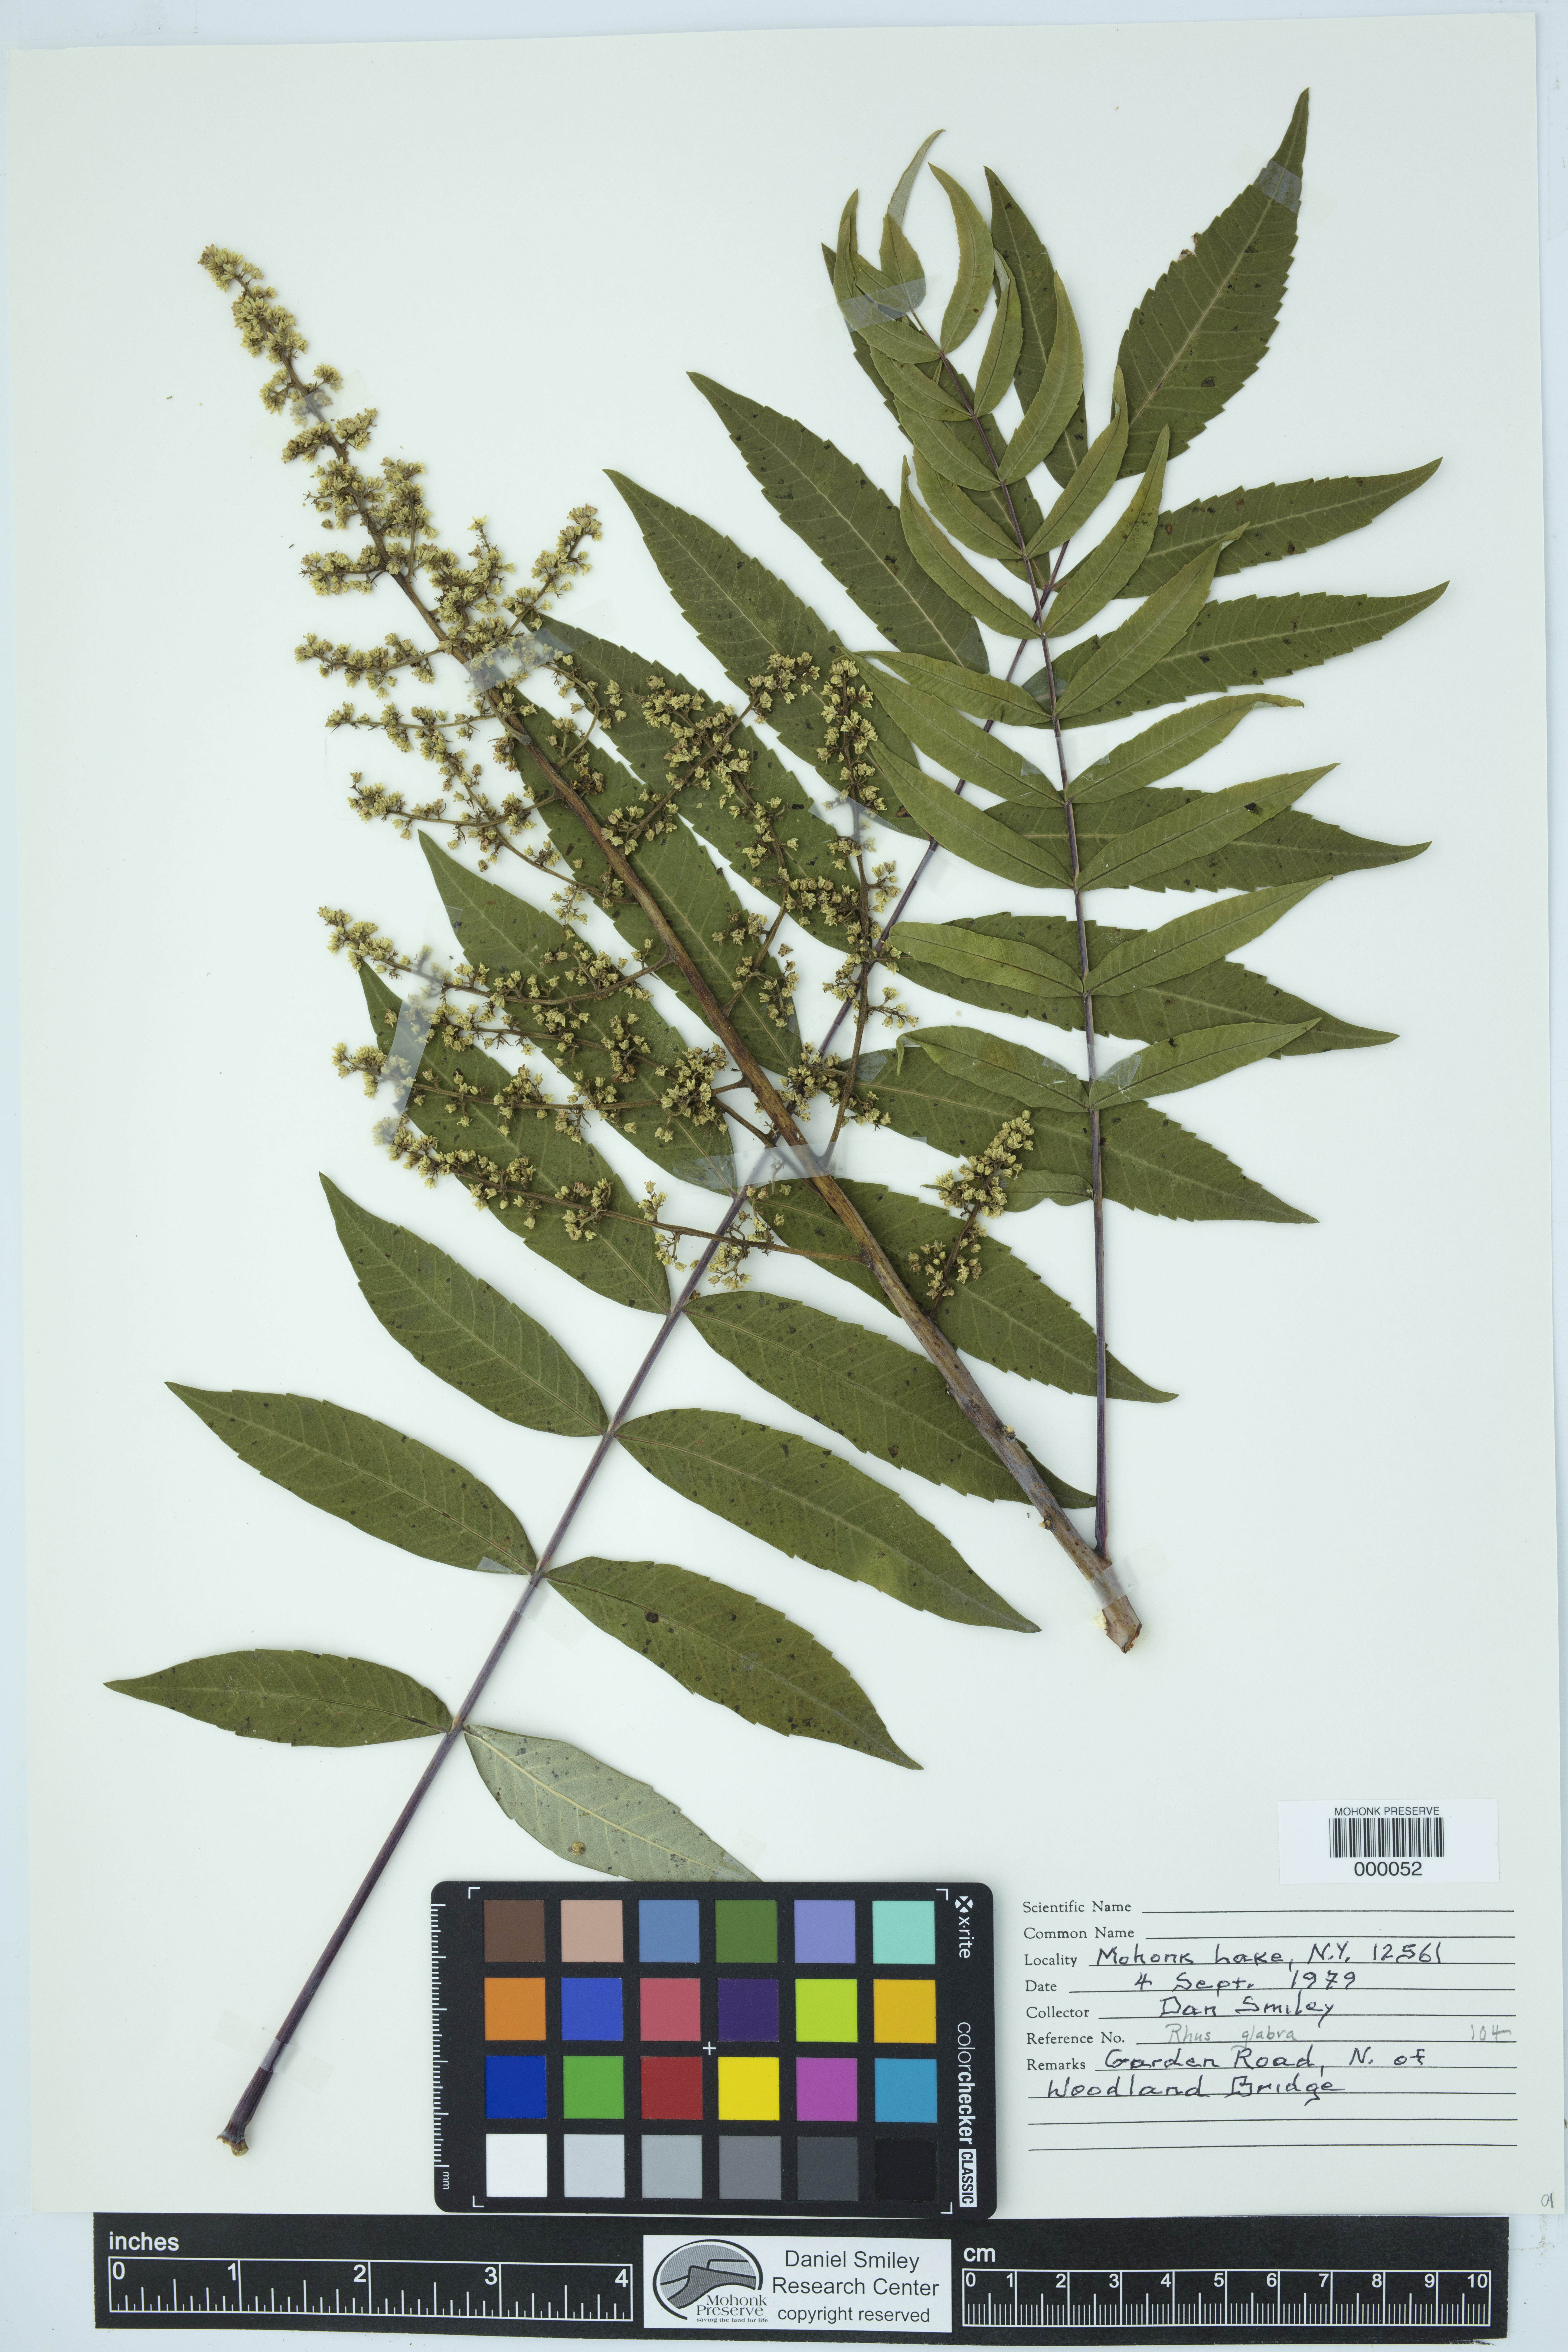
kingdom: Plantae
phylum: Tracheophyta
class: Magnoliopsida
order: Sapindales
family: Anacardiaceae
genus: Rhus
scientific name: Rhus glabra
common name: Scarlet sumac
